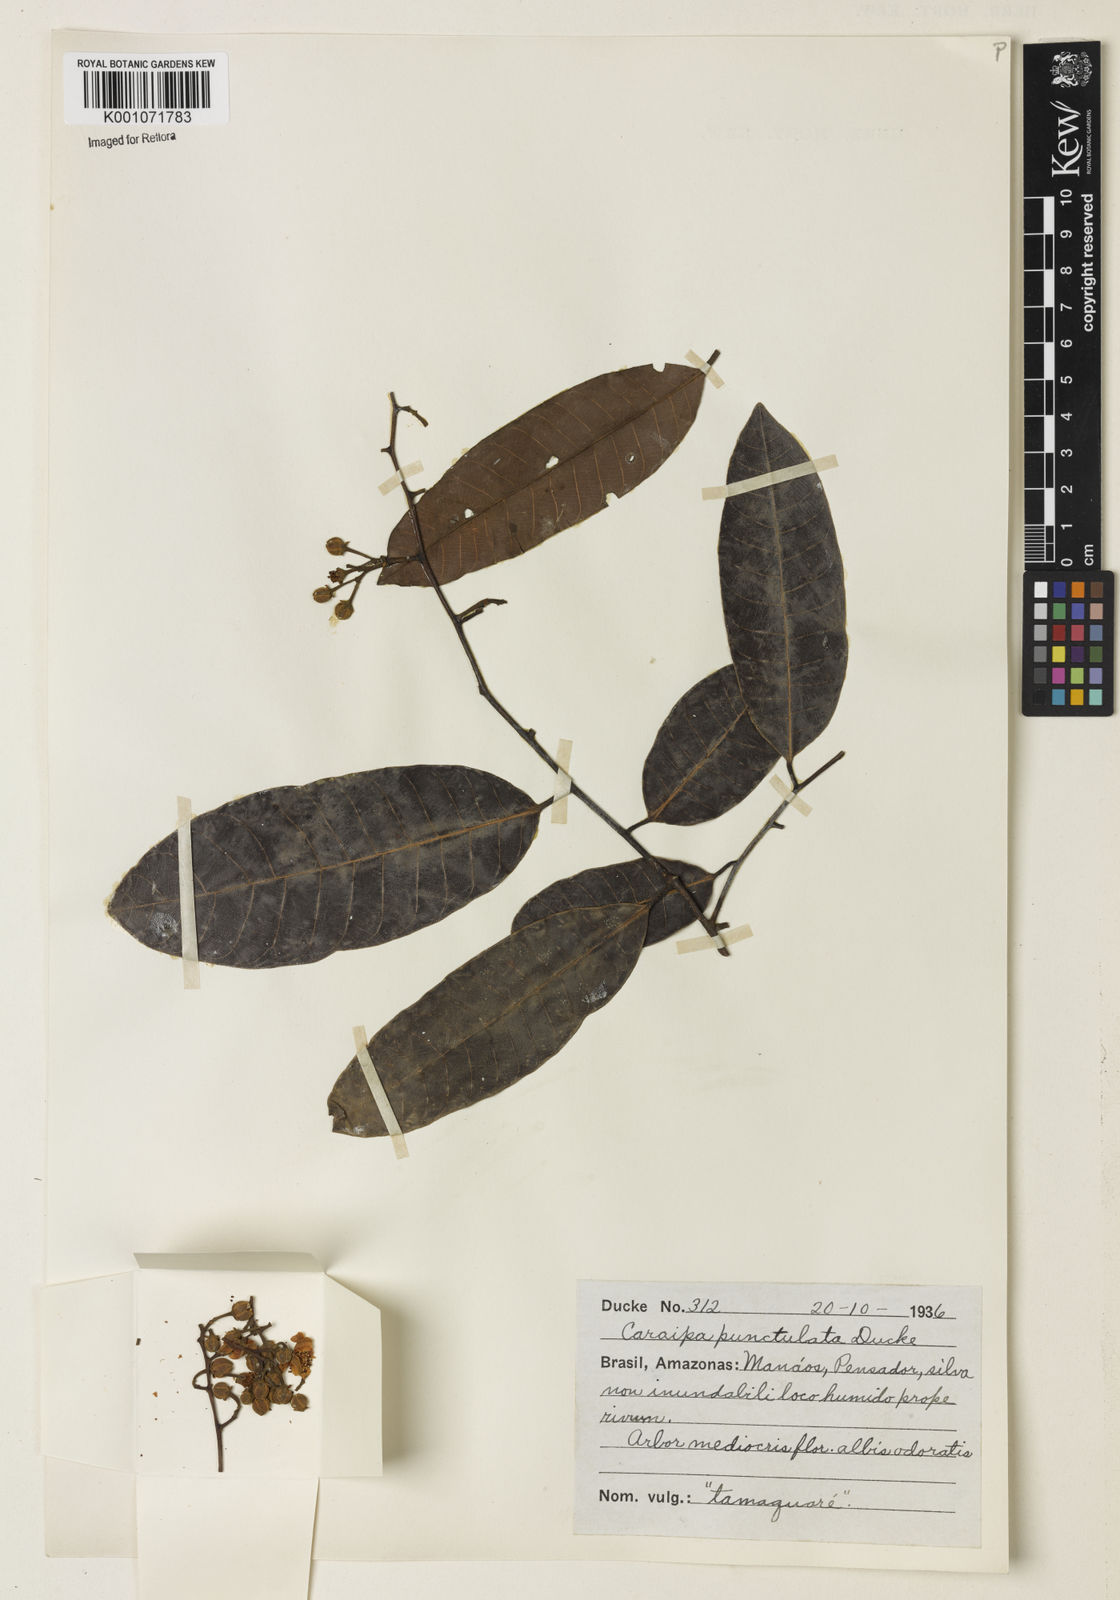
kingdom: Plantae
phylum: Tracheophyta
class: Magnoliopsida
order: Malpighiales
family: Calophyllaceae
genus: Caraipa
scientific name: Caraipa punctulata
